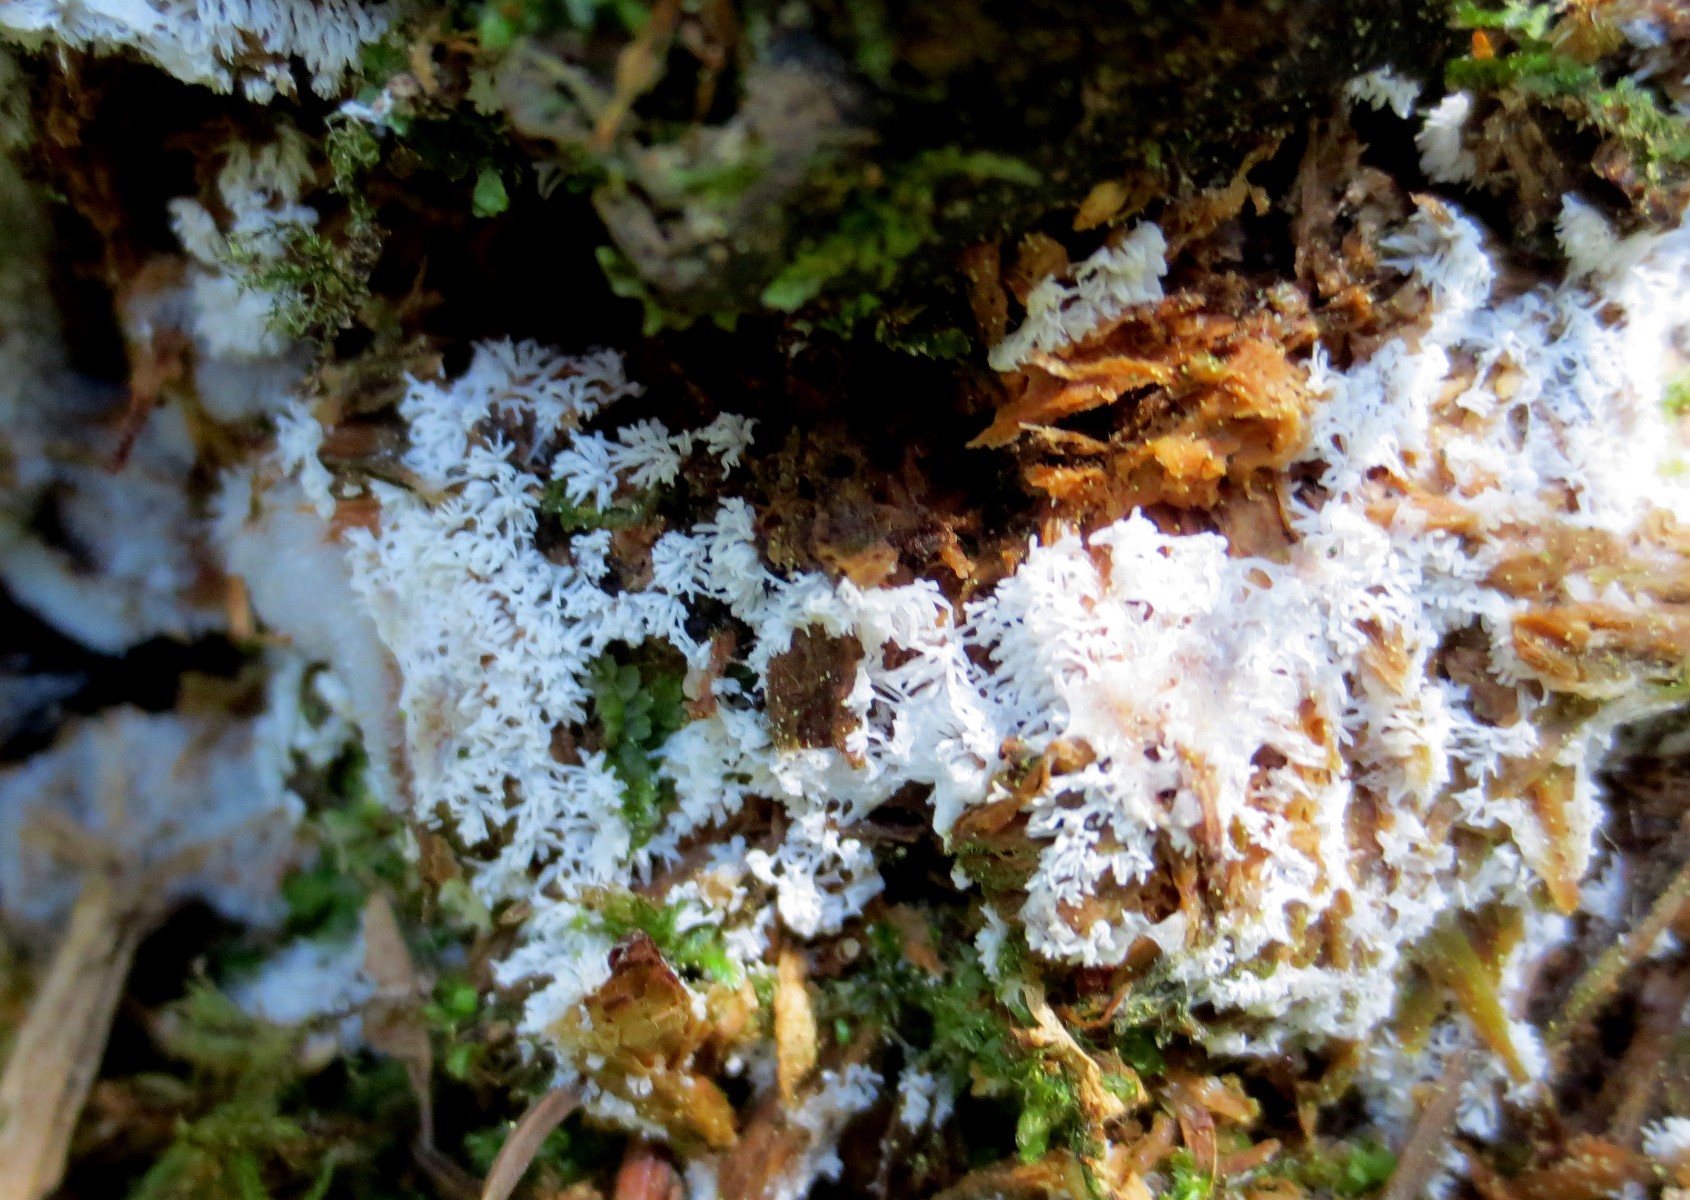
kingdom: Protozoa
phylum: Mycetozoa
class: Protosteliomycetes
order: Ceratiomyxales
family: Ceratiomyxaceae
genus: Ceratiomyxa
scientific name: Ceratiomyxa fruticulosa
